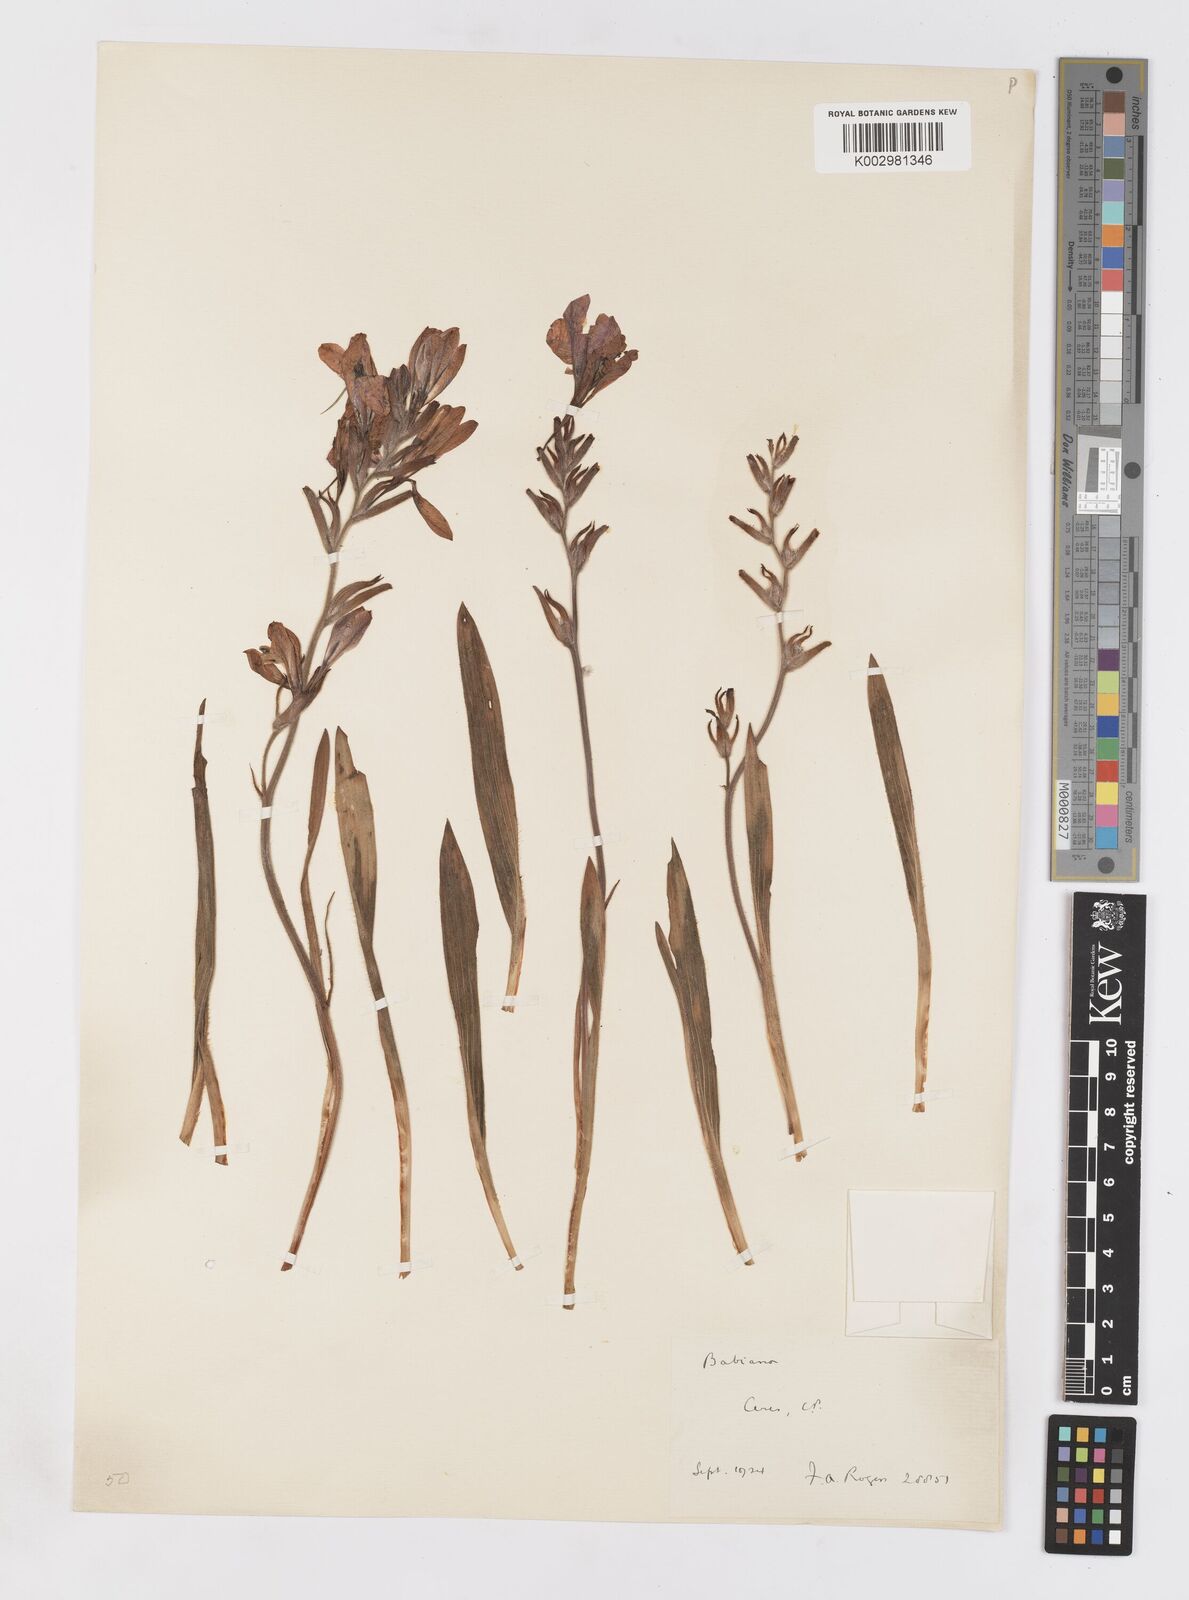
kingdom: Plantae
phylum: Tracheophyta
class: Liliopsida
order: Asparagales
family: Iridaceae
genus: Babiana
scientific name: Babiana
